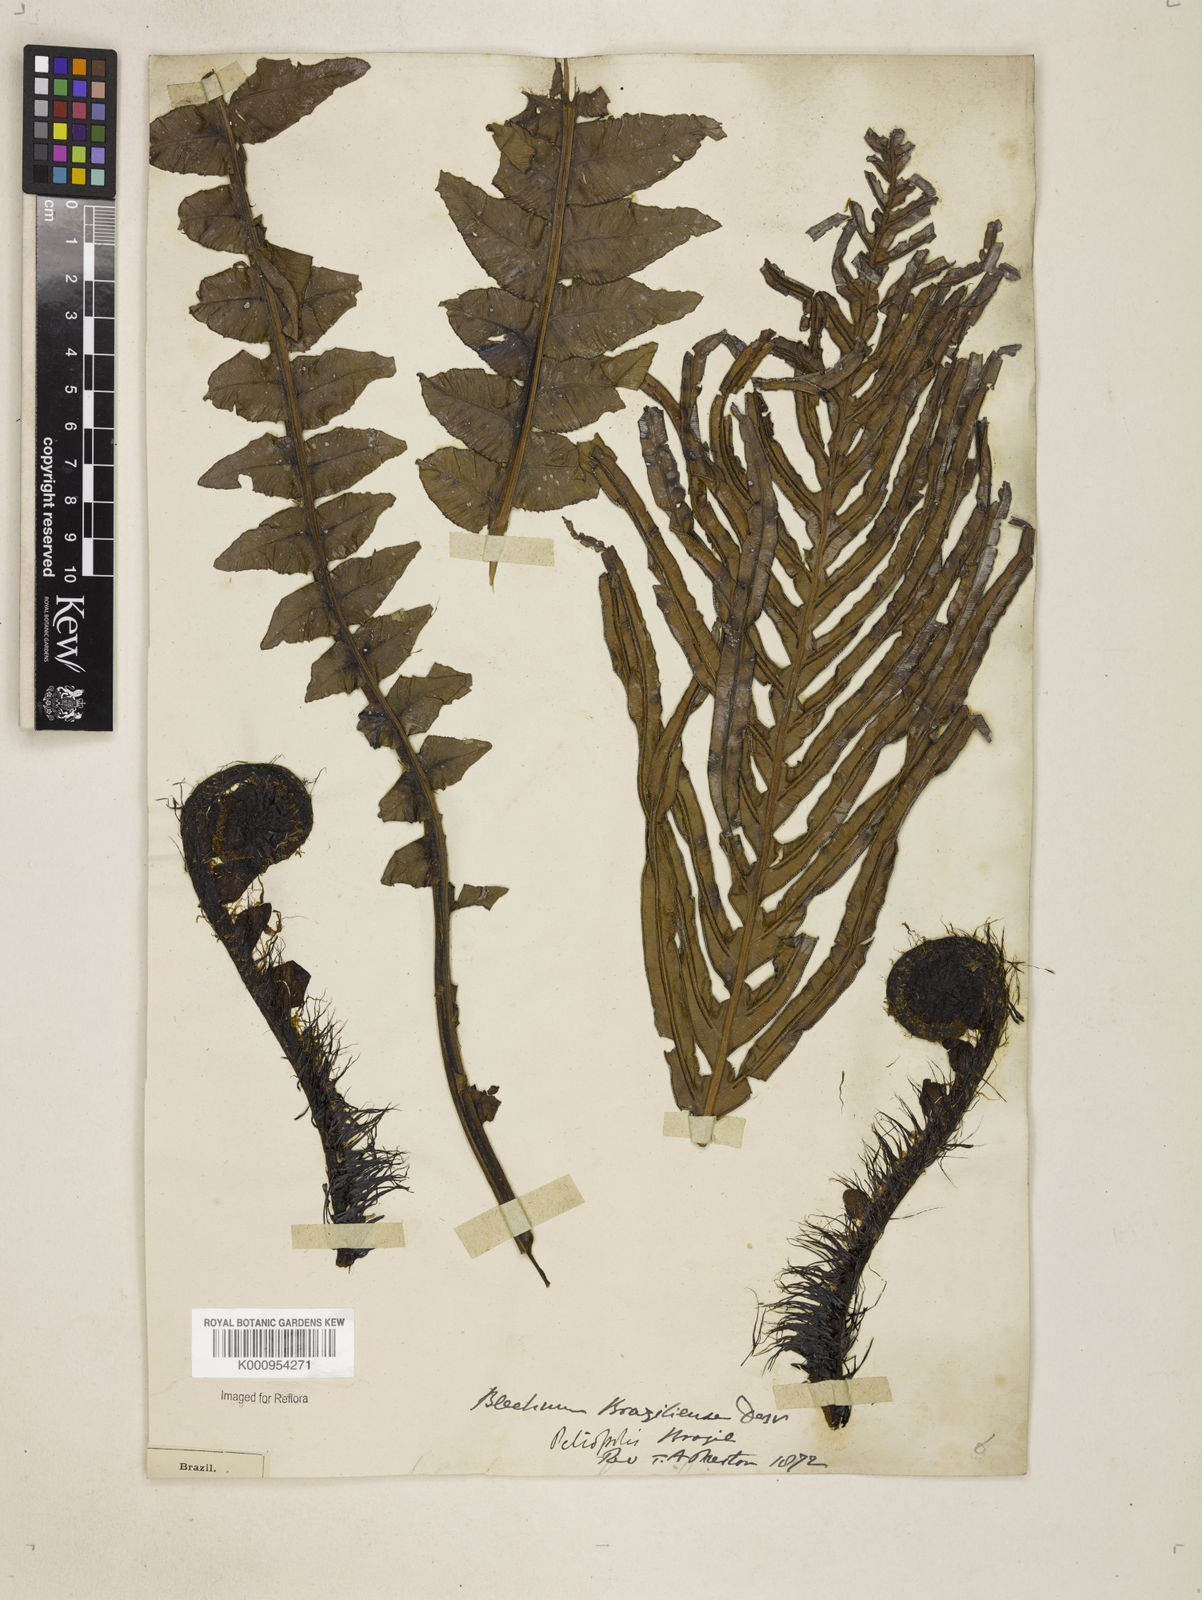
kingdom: Plantae
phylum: Tracheophyta
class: Polypodiopsida
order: Polypodiales
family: Blechnaceae
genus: Neoblechnum
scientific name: Neoblechnum brasiliense
